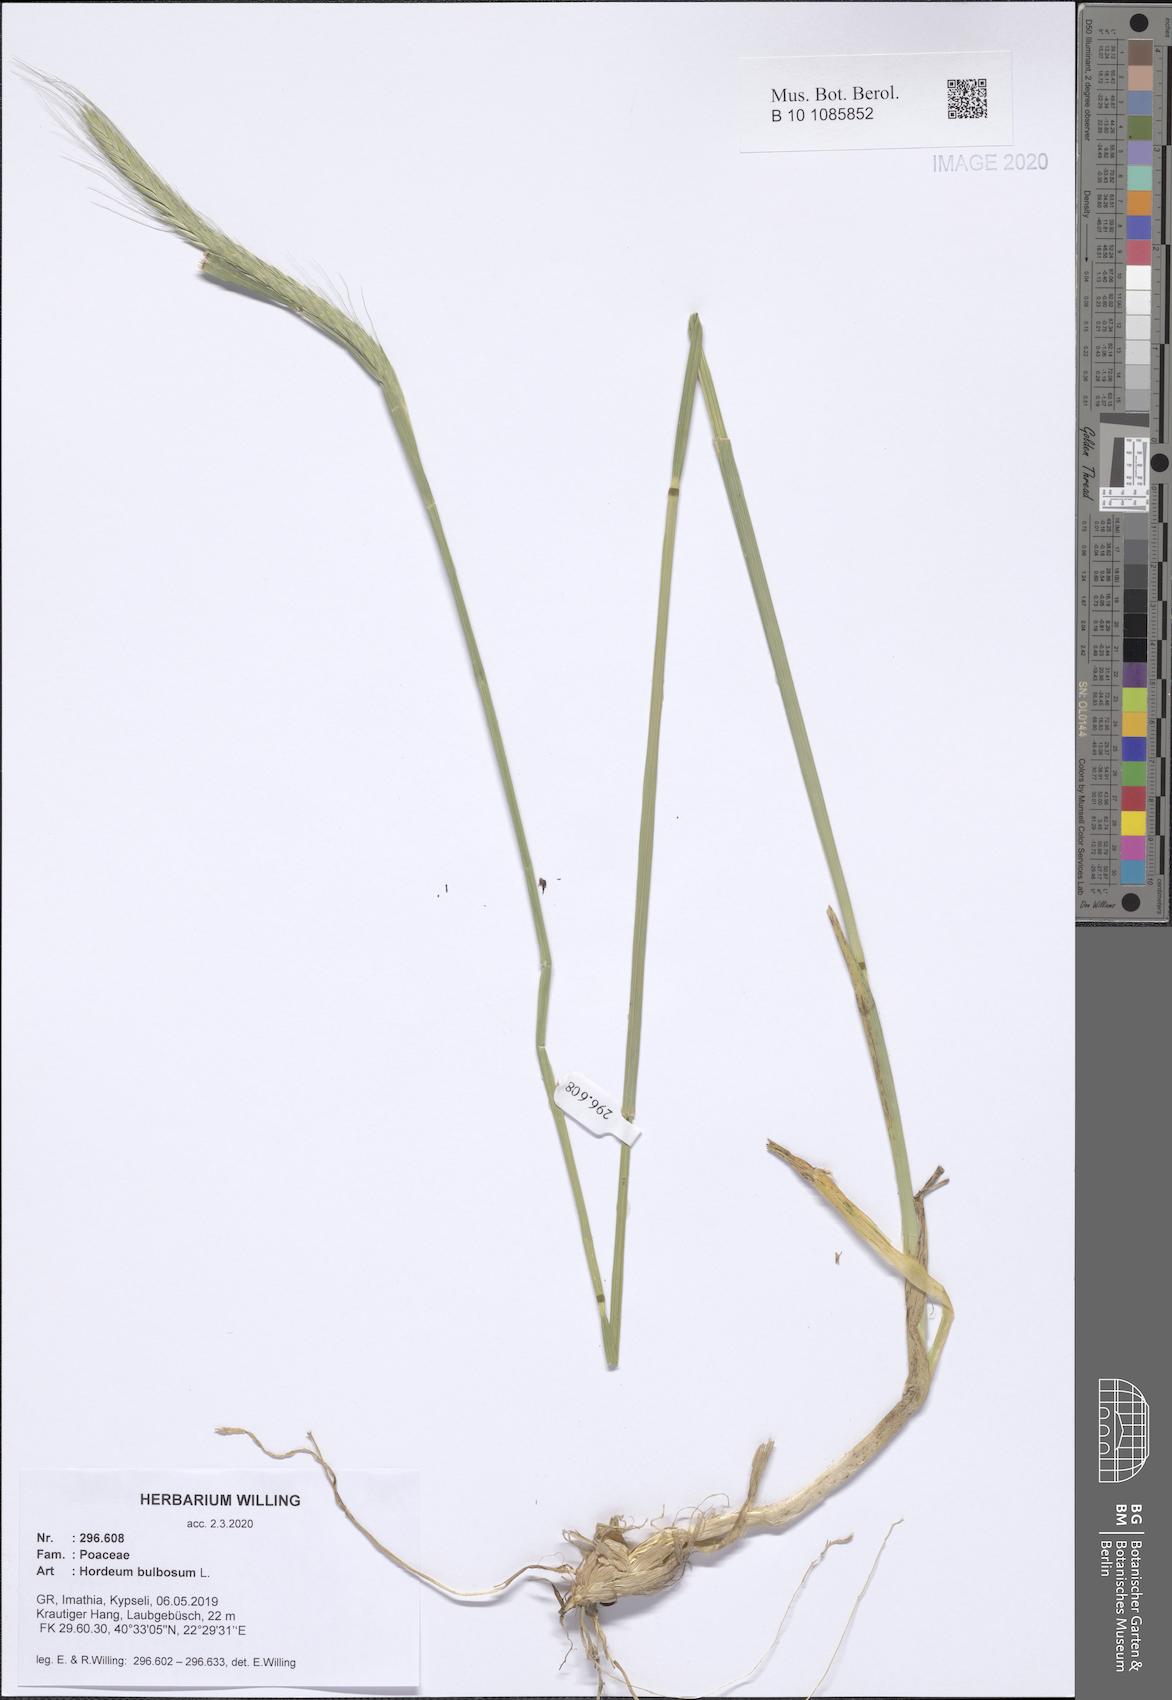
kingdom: Plantae
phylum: Tracheophyta
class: Liliopsida
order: Poales
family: Poaceae
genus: Hordeum
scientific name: Hordeum bulbosum
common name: Bulbous barley
